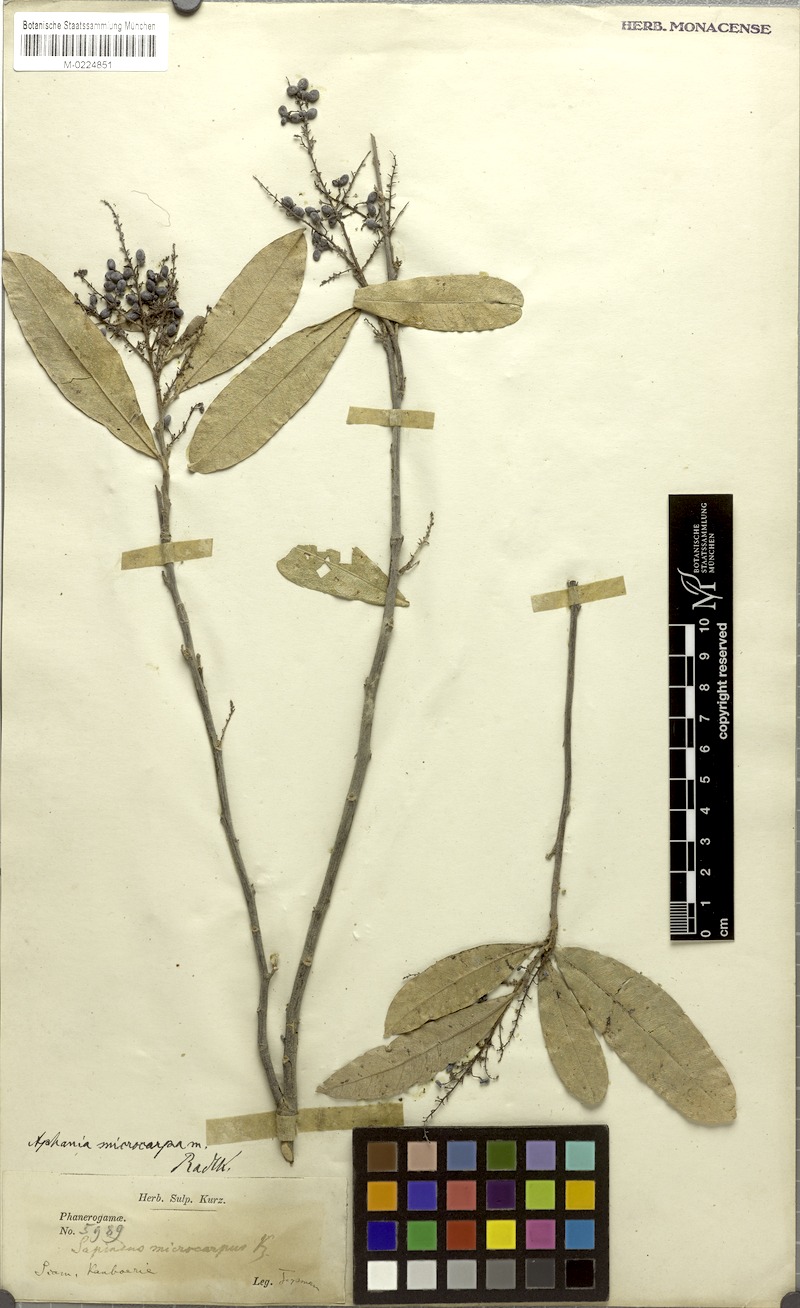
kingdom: Plantae
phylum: Tracheophyta
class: Magnoliopsida
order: Sapindales
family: Sapindaceae
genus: Lepisanthes
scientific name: Lepisanthes senegalensis
